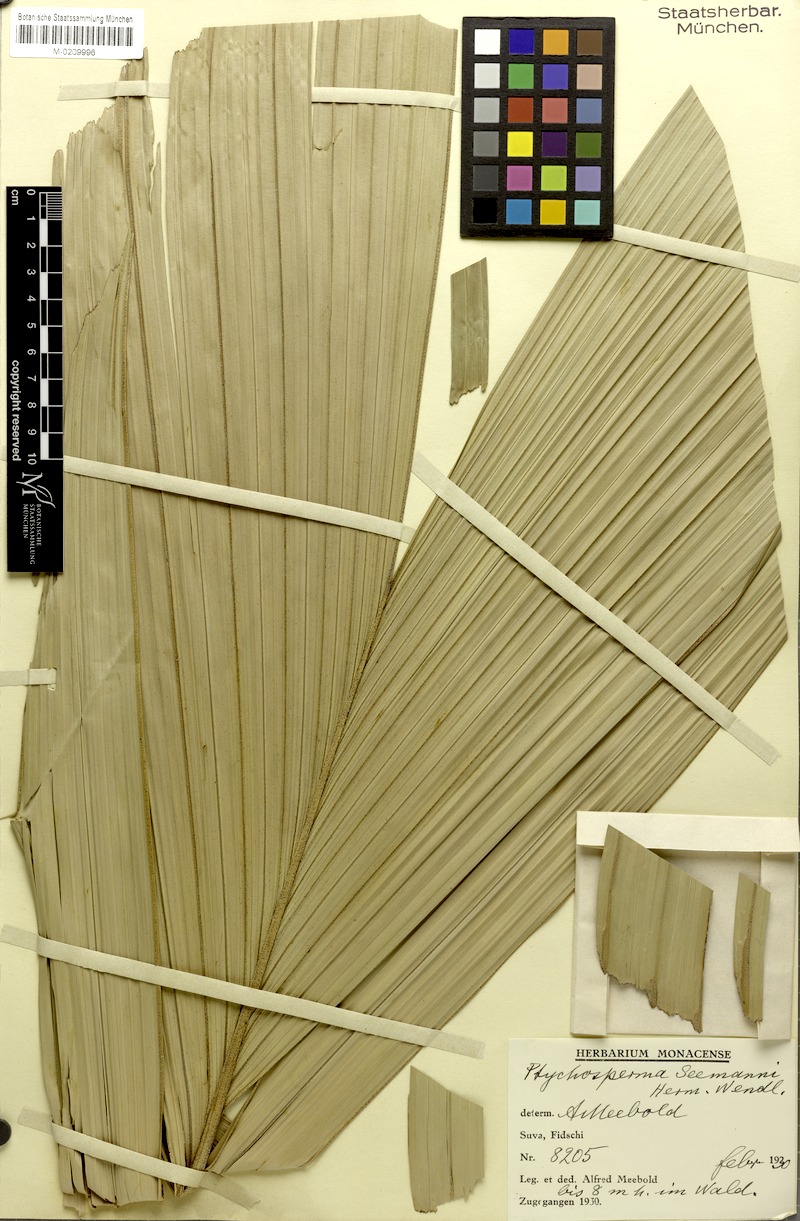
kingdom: Plantae
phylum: Tracheophyta
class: Liliopsida
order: Arecales
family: Arecaceae
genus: Balaka
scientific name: Balaka seemannii
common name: Balaka palm
